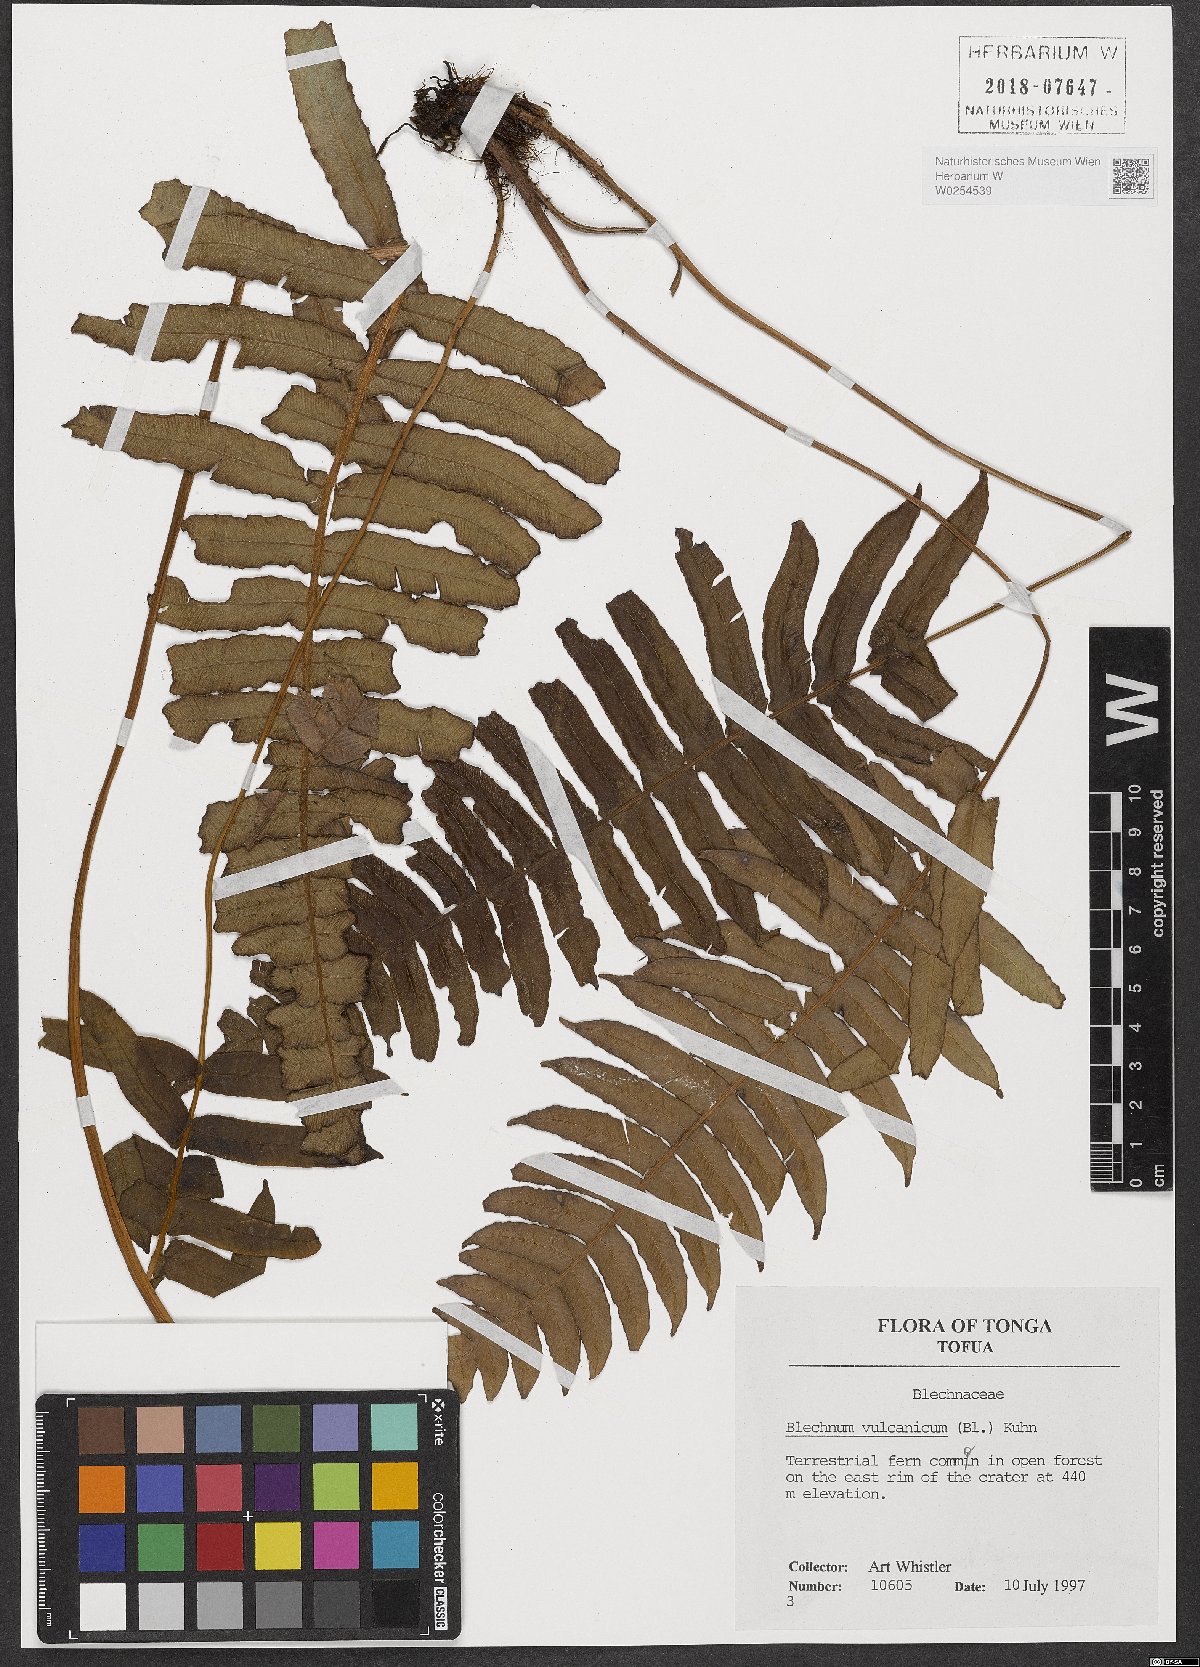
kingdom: Plantae
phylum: Tracheophyta
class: Polypodiopsida
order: Polypodiales
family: Blechnaceae
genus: Cranfillia
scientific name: Cranfillia vulcanica
